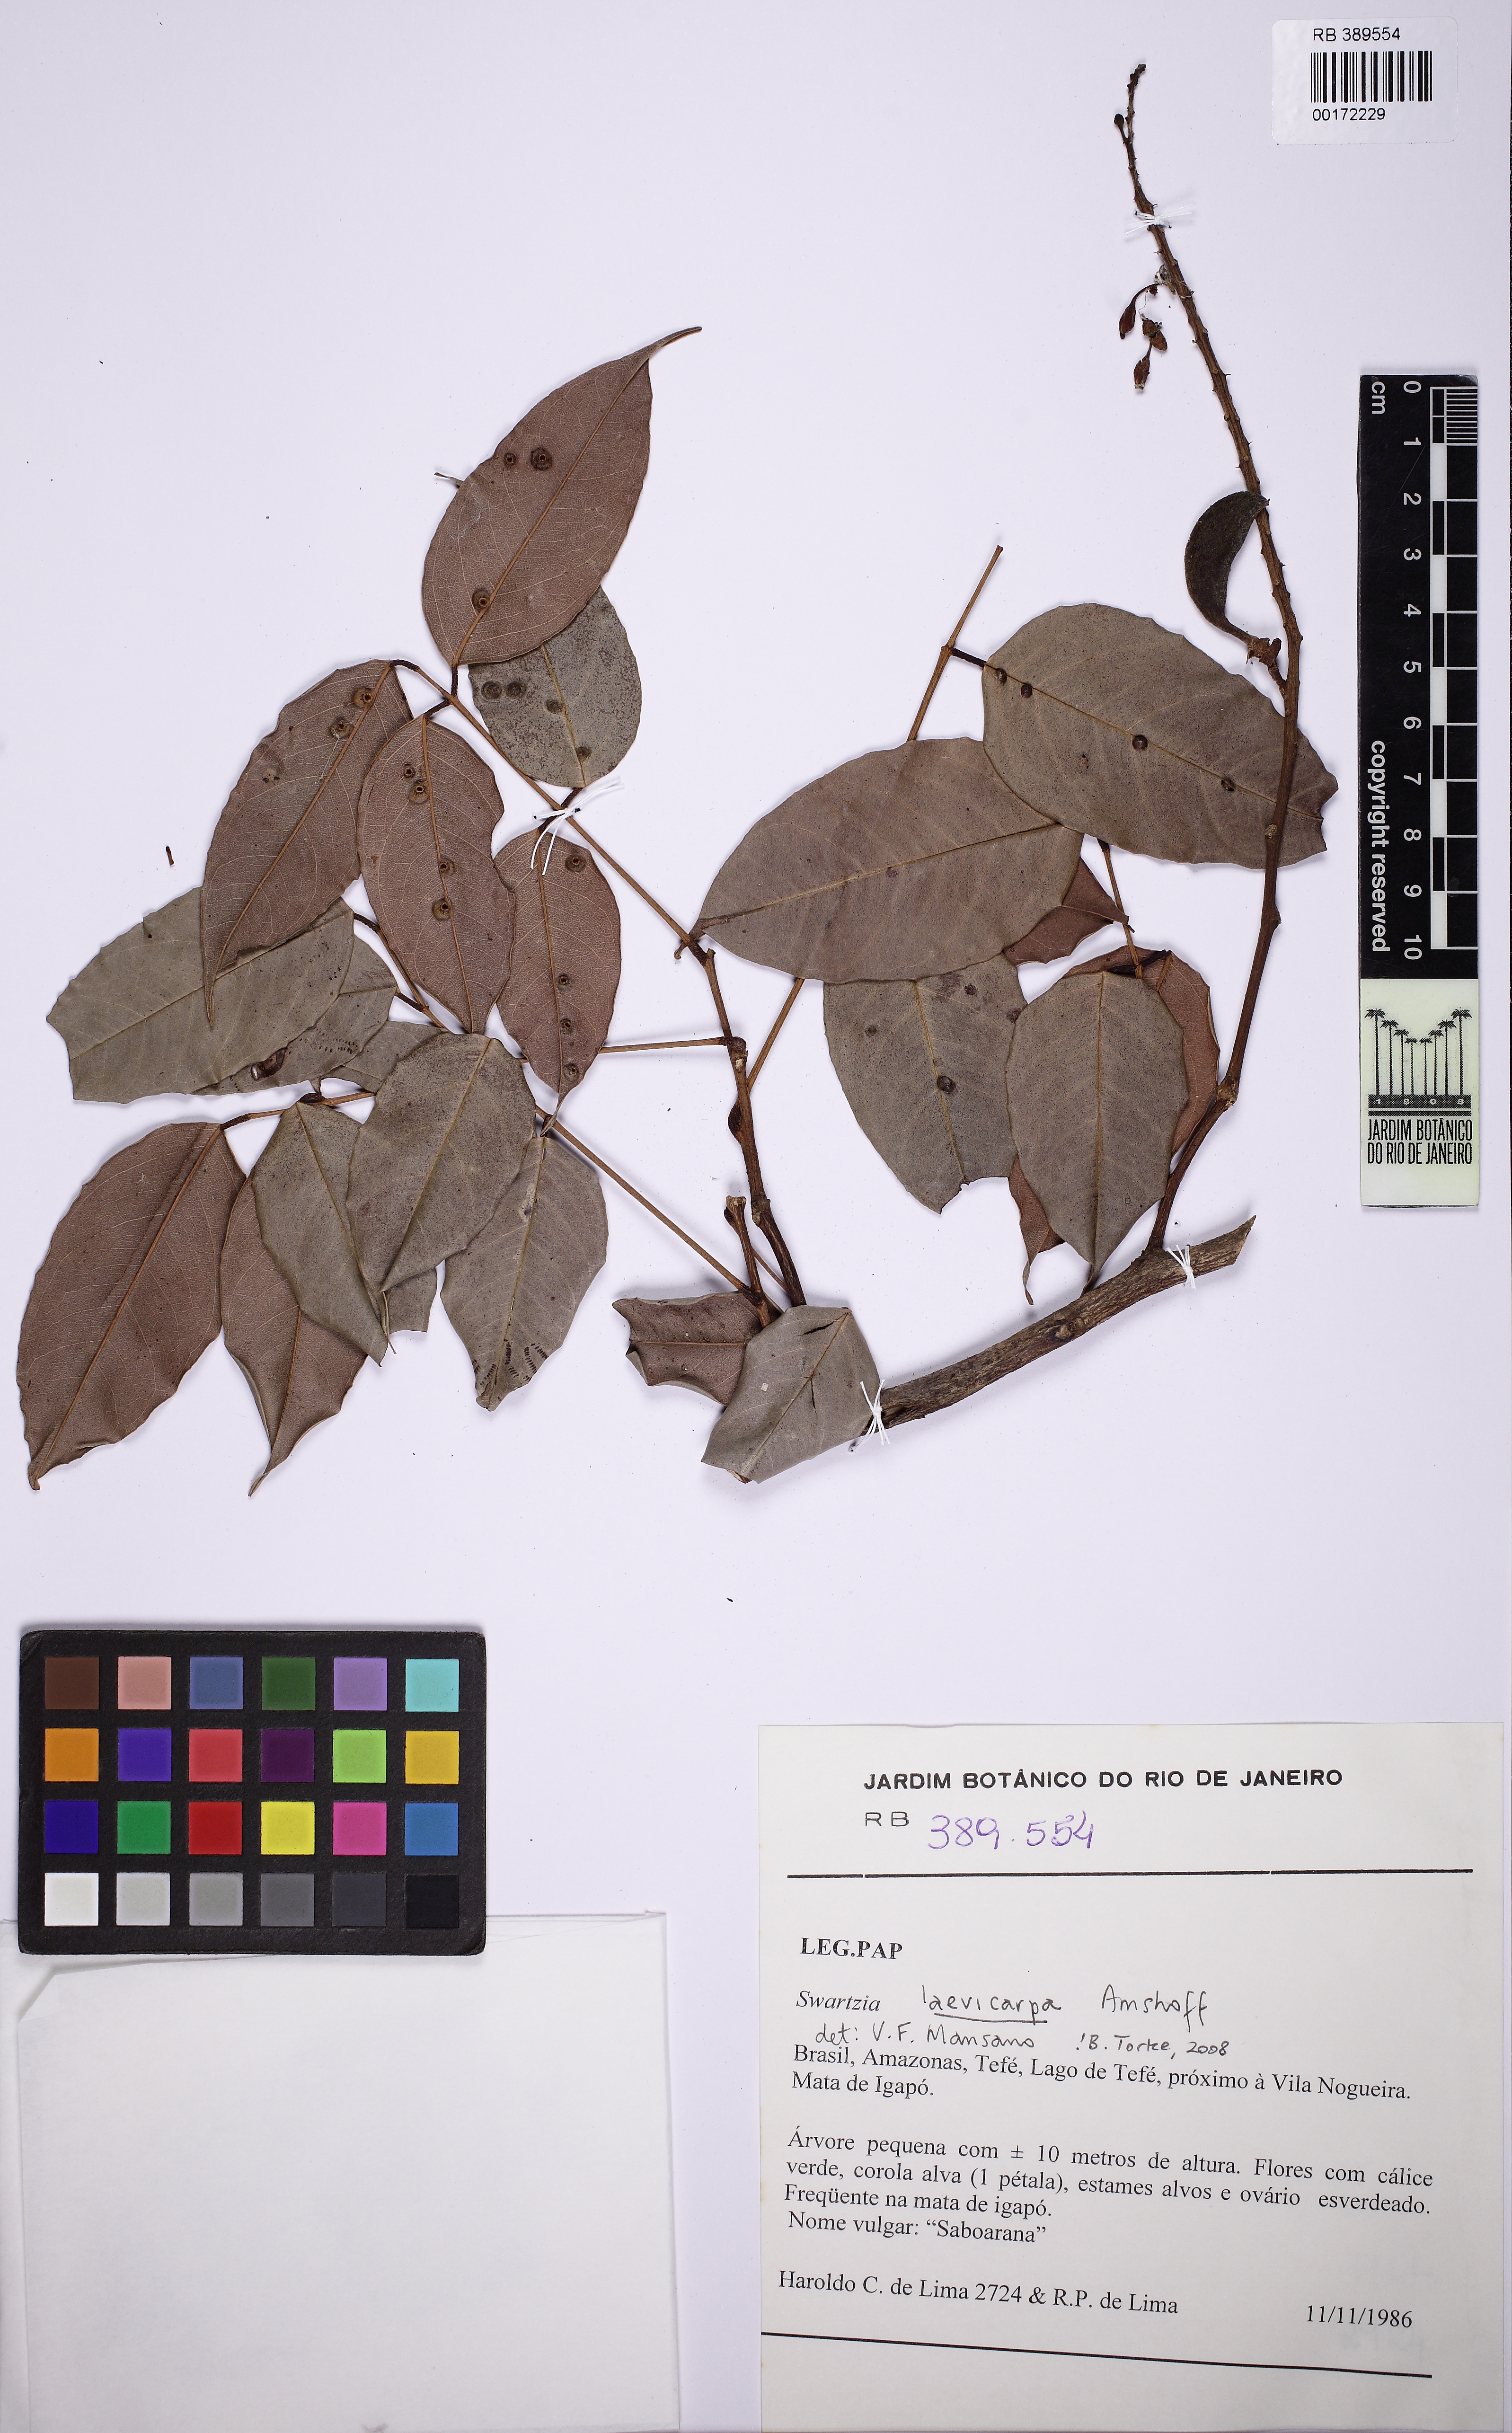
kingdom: Plantae
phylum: Tracheophyta
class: Magnoliopsida
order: Fabales
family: Fabaceae
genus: Swartzia
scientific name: Swartzia laevicarpa
